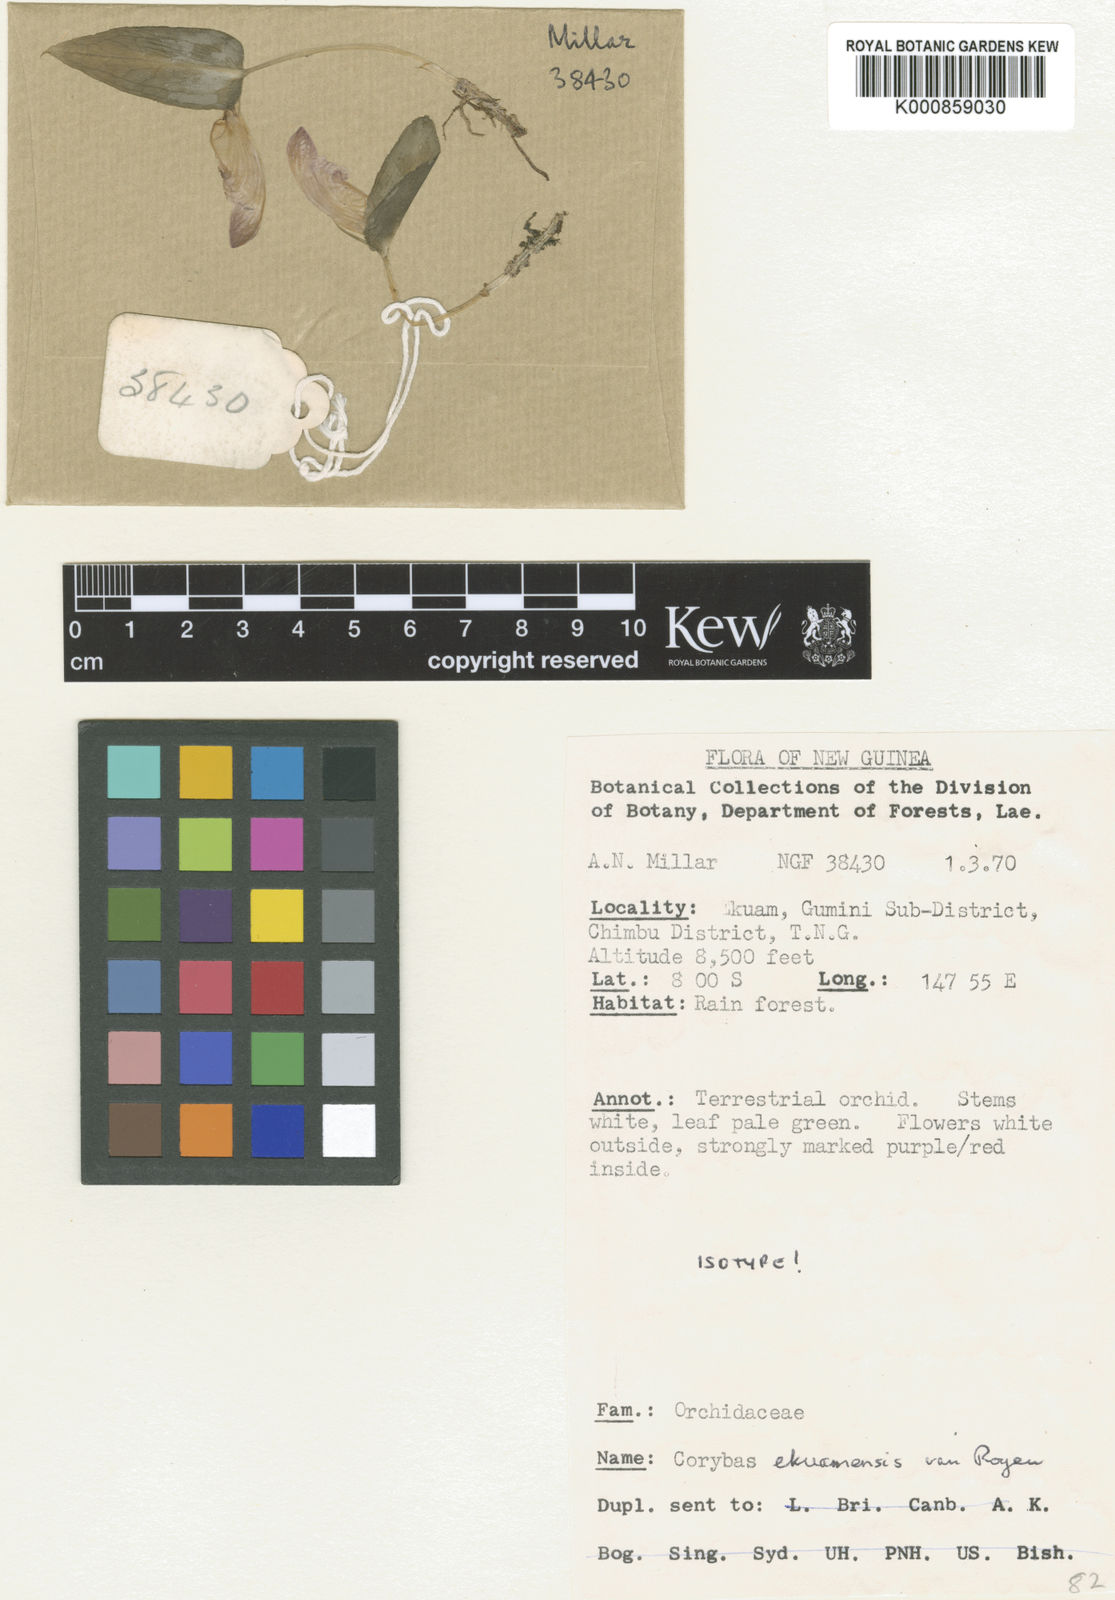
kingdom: Plantae
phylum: Tracheophyta
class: Liliopsida
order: Asparagales
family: Orchidaceae
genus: Corybas
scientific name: Corybas ekuamensis
